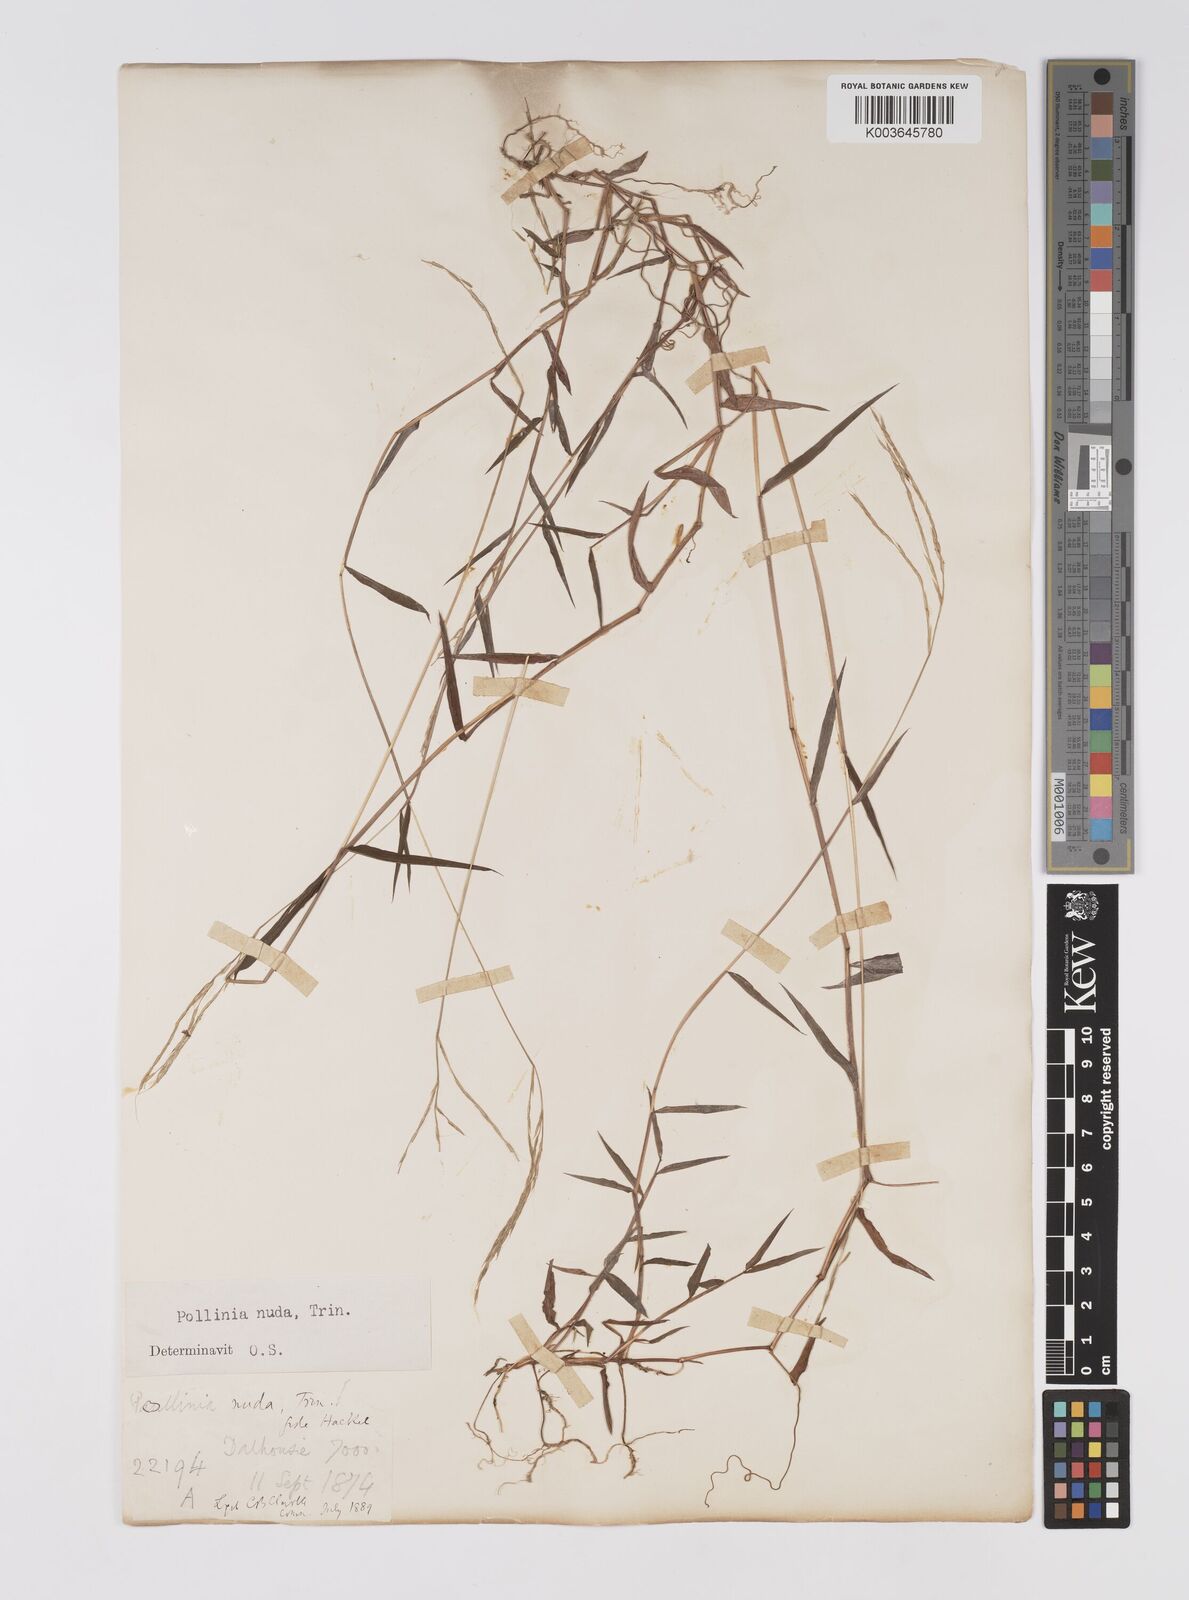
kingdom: Plantae
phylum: Tracheophyta
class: Liliopsida
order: Poales
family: Poaceae
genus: Microstegium
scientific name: Microstegium nudum
